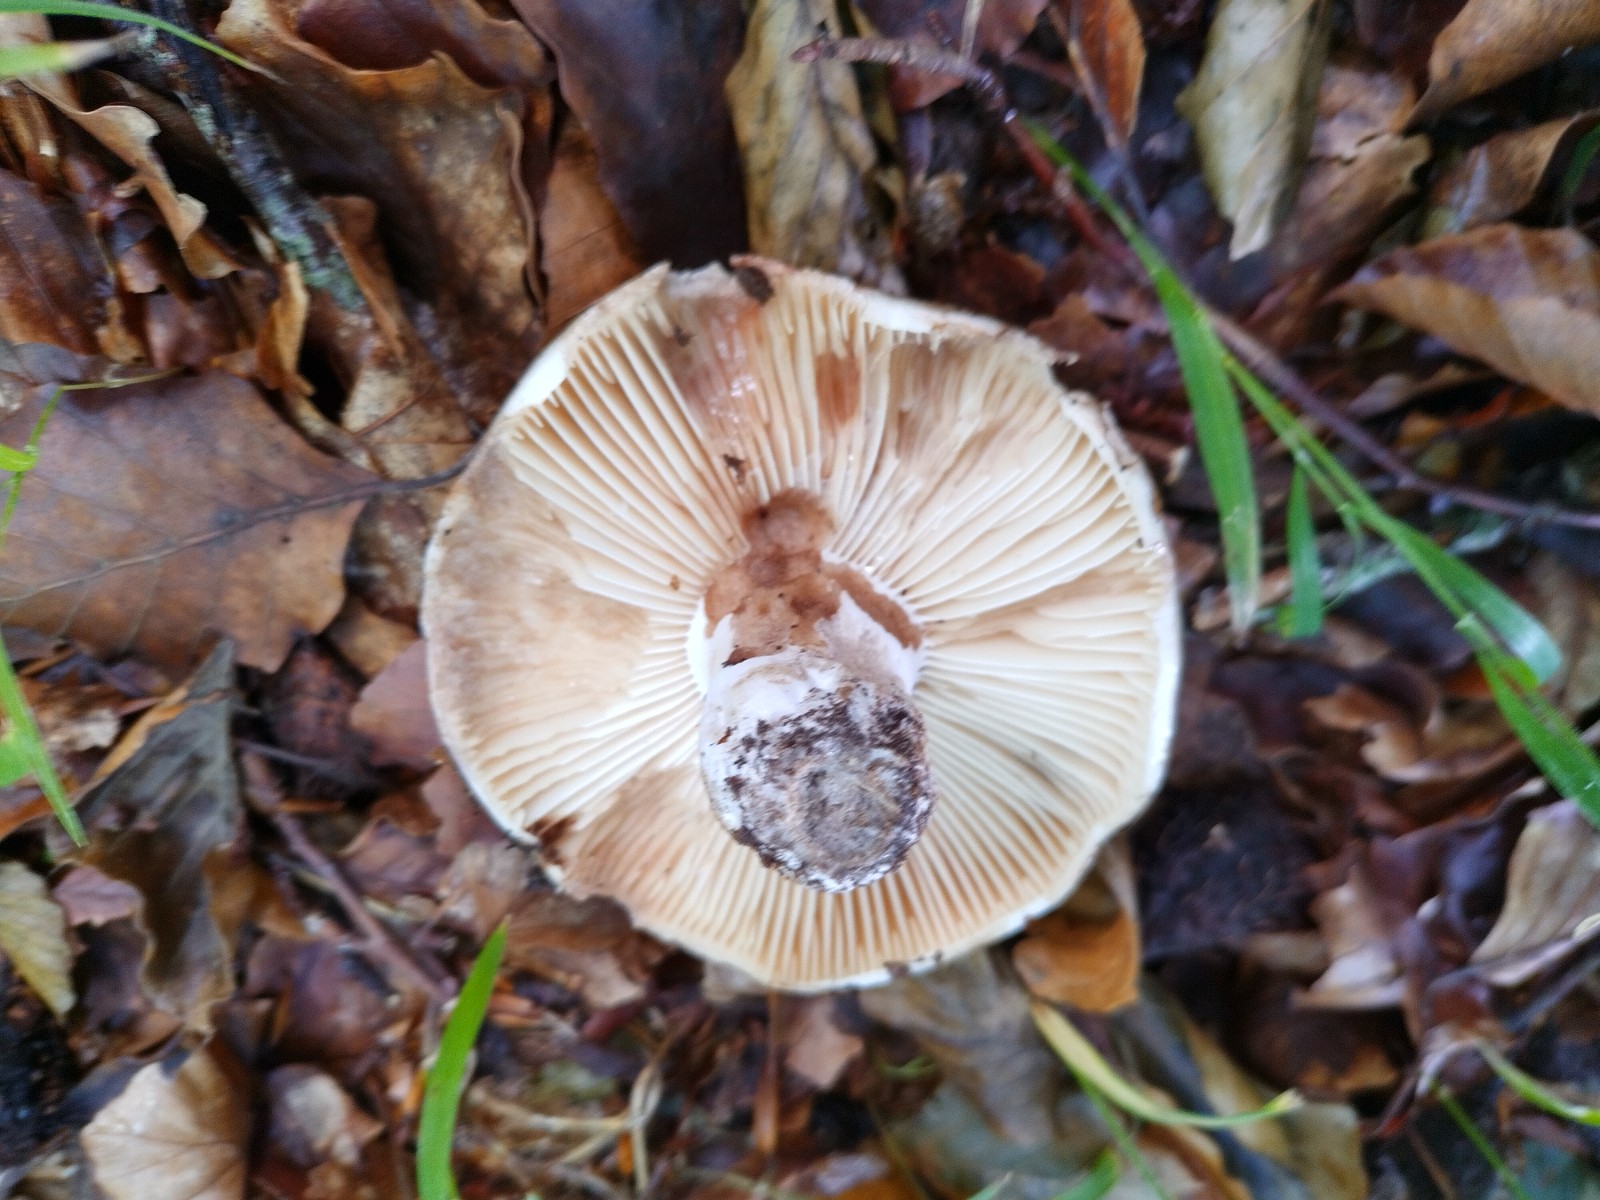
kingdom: Fungi
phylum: Basidiomycota
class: Agaricomycetes
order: Russulales
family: Russulaceae
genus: Russula
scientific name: Russula adusta
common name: sværtende skørhat
